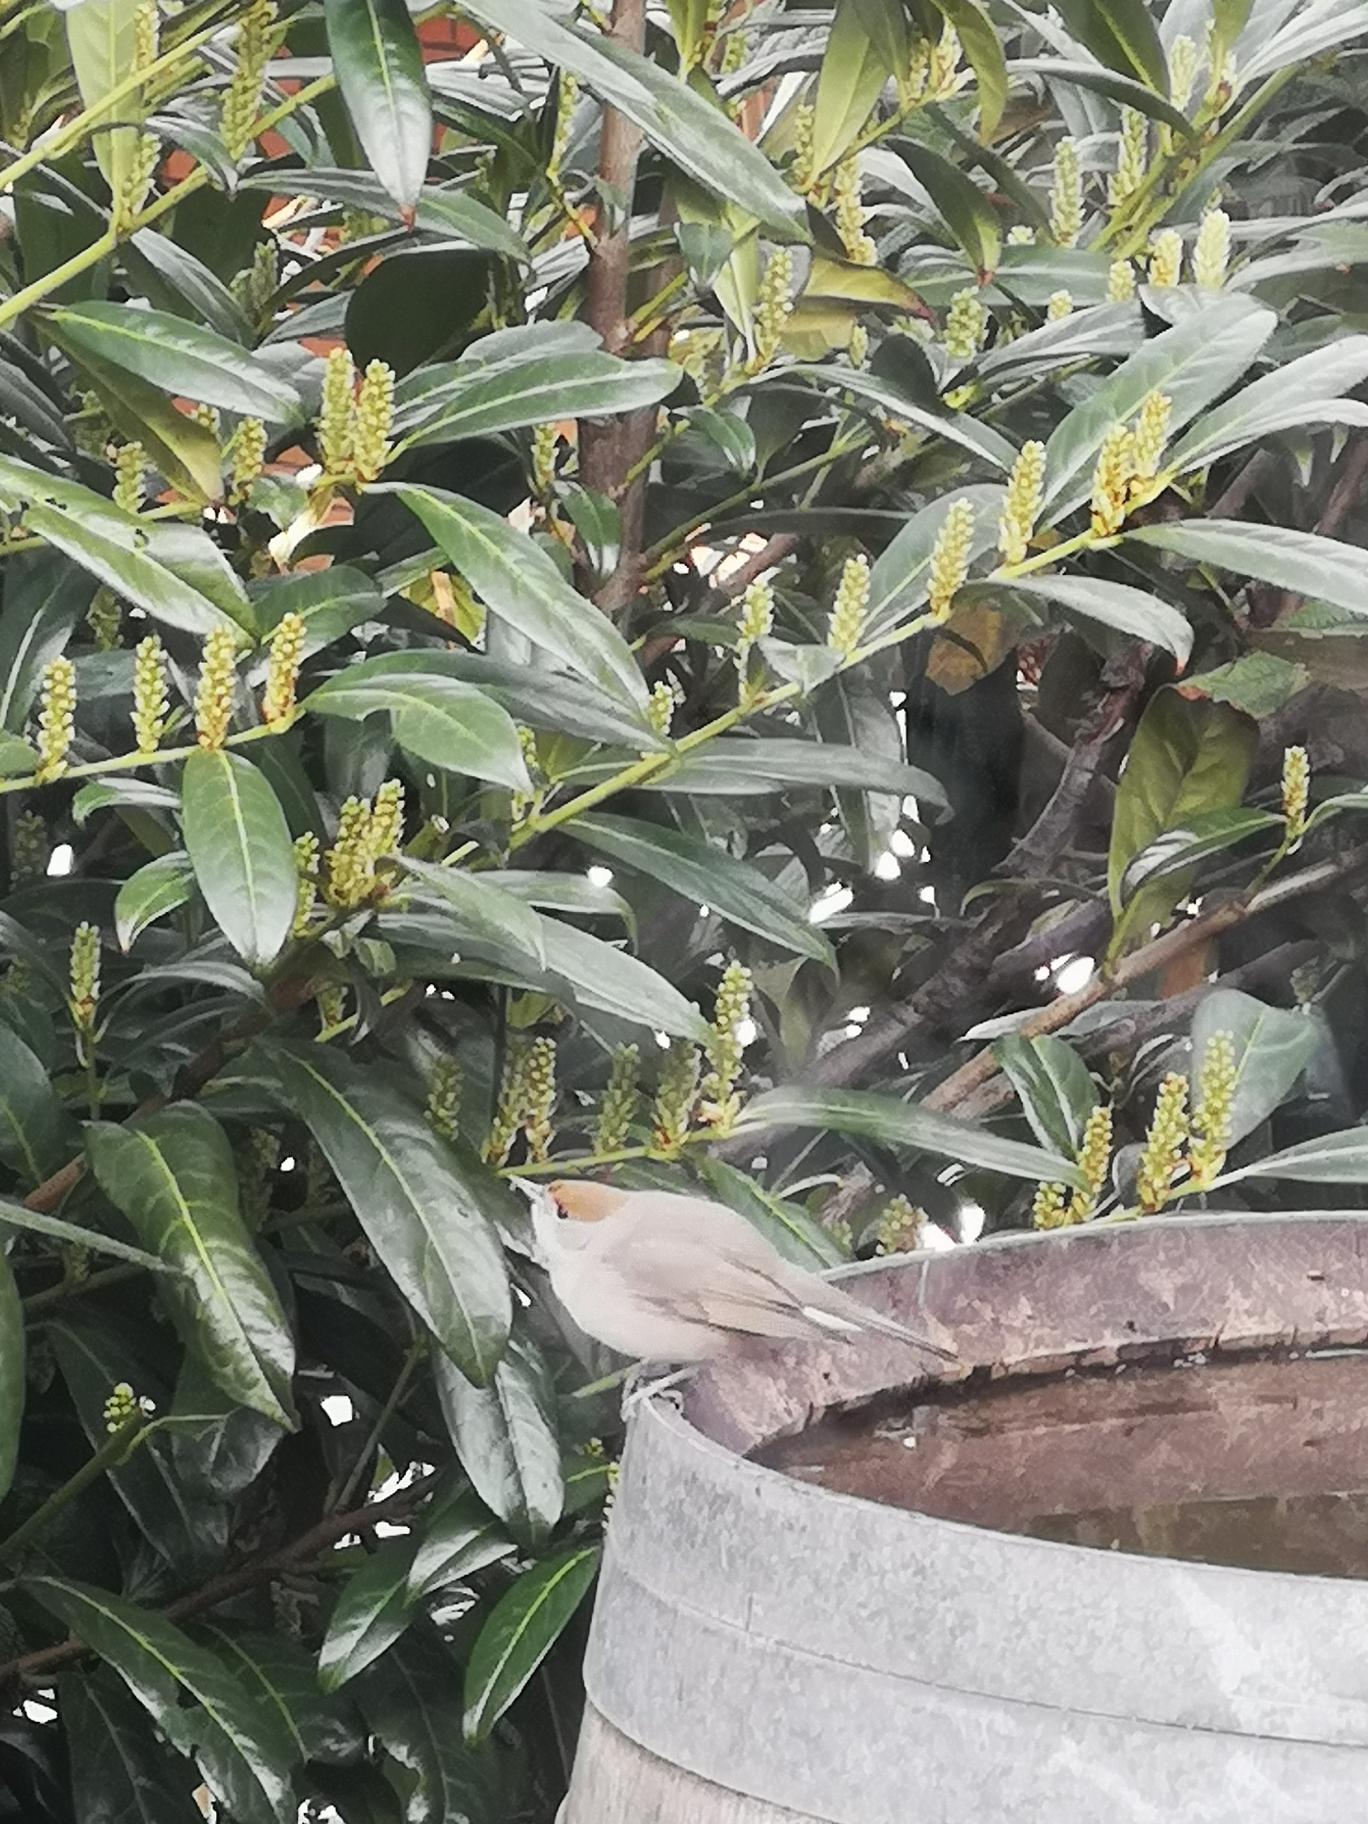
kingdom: Animalia
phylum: Chordata
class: Aves
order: Passeriformes
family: Sylviidae
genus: Sylvia
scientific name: Sylvia atricapilla
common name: Munk
